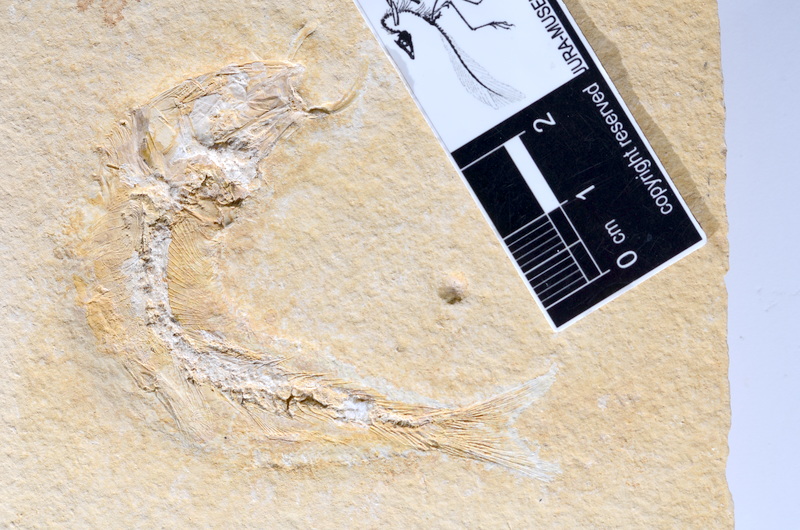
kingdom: Animalia
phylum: Chordata
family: Ascalaboidae
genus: Tharsis
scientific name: Tharsis dubius
